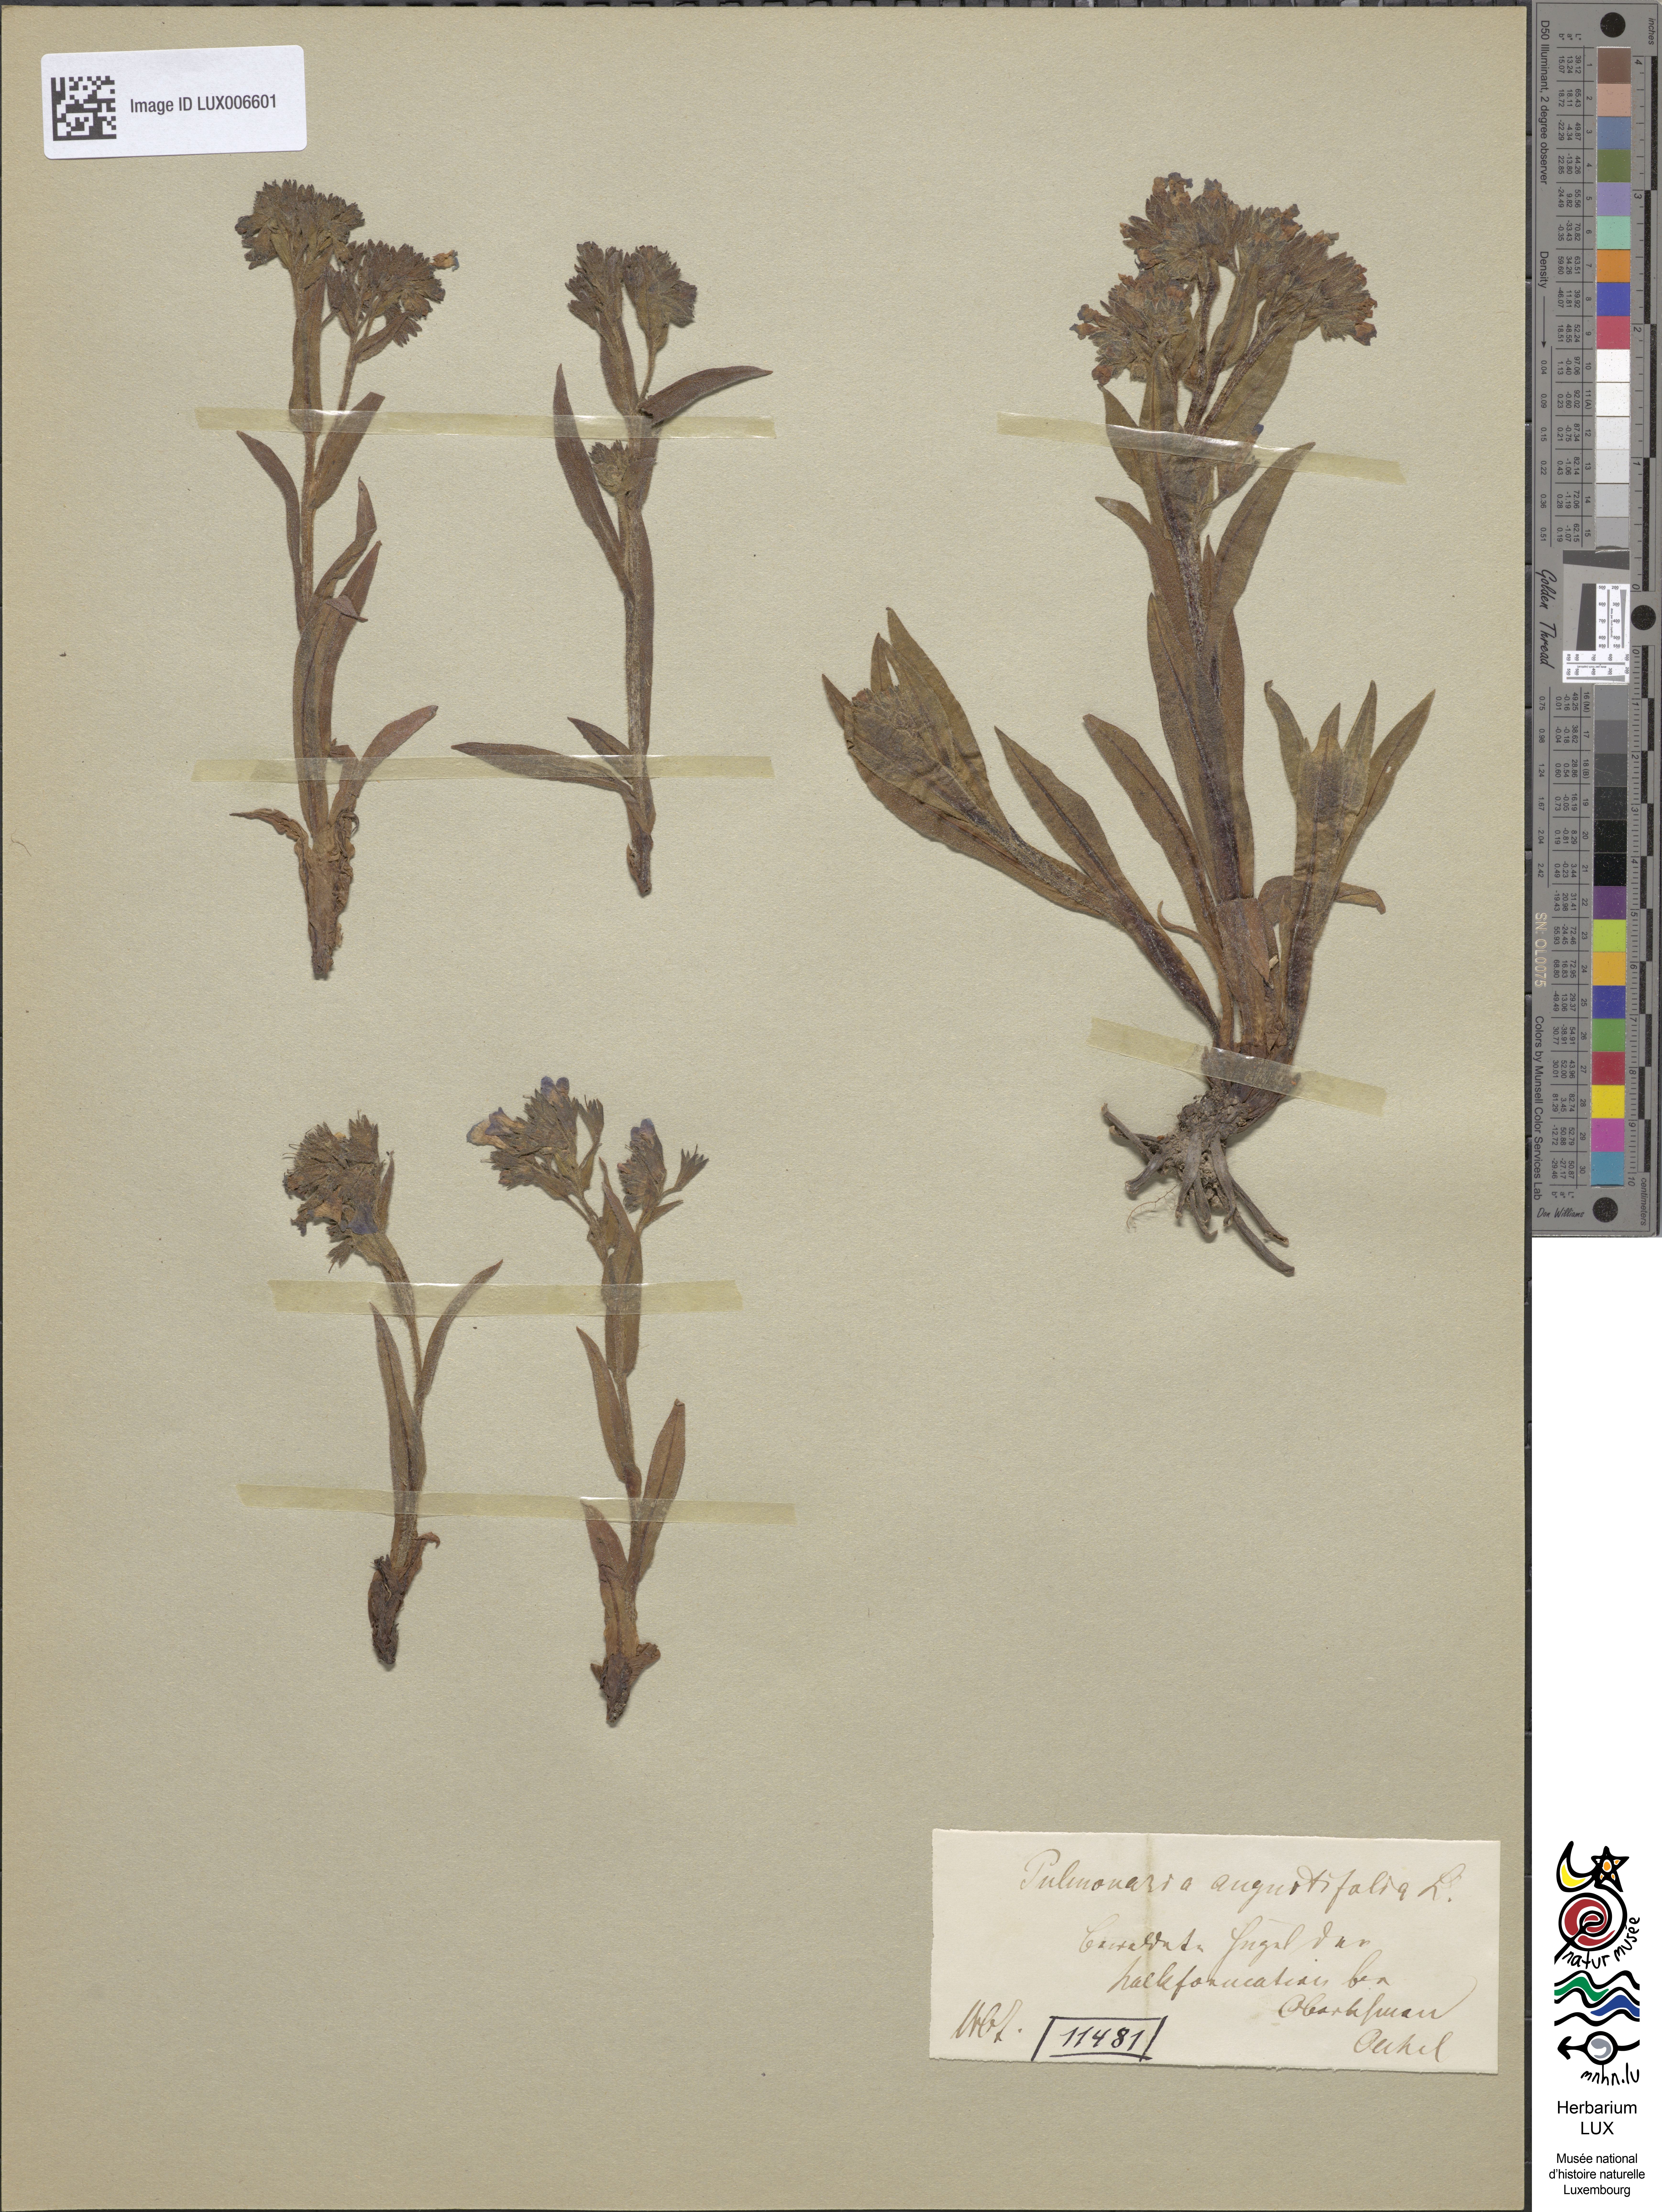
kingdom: Plantae
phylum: Tracheophyta
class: Magnoliopsida
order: Boraginales
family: Boraginaceae
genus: Pulmonaria
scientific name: Pulmonaria angustifolia
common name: Blue cowslip
